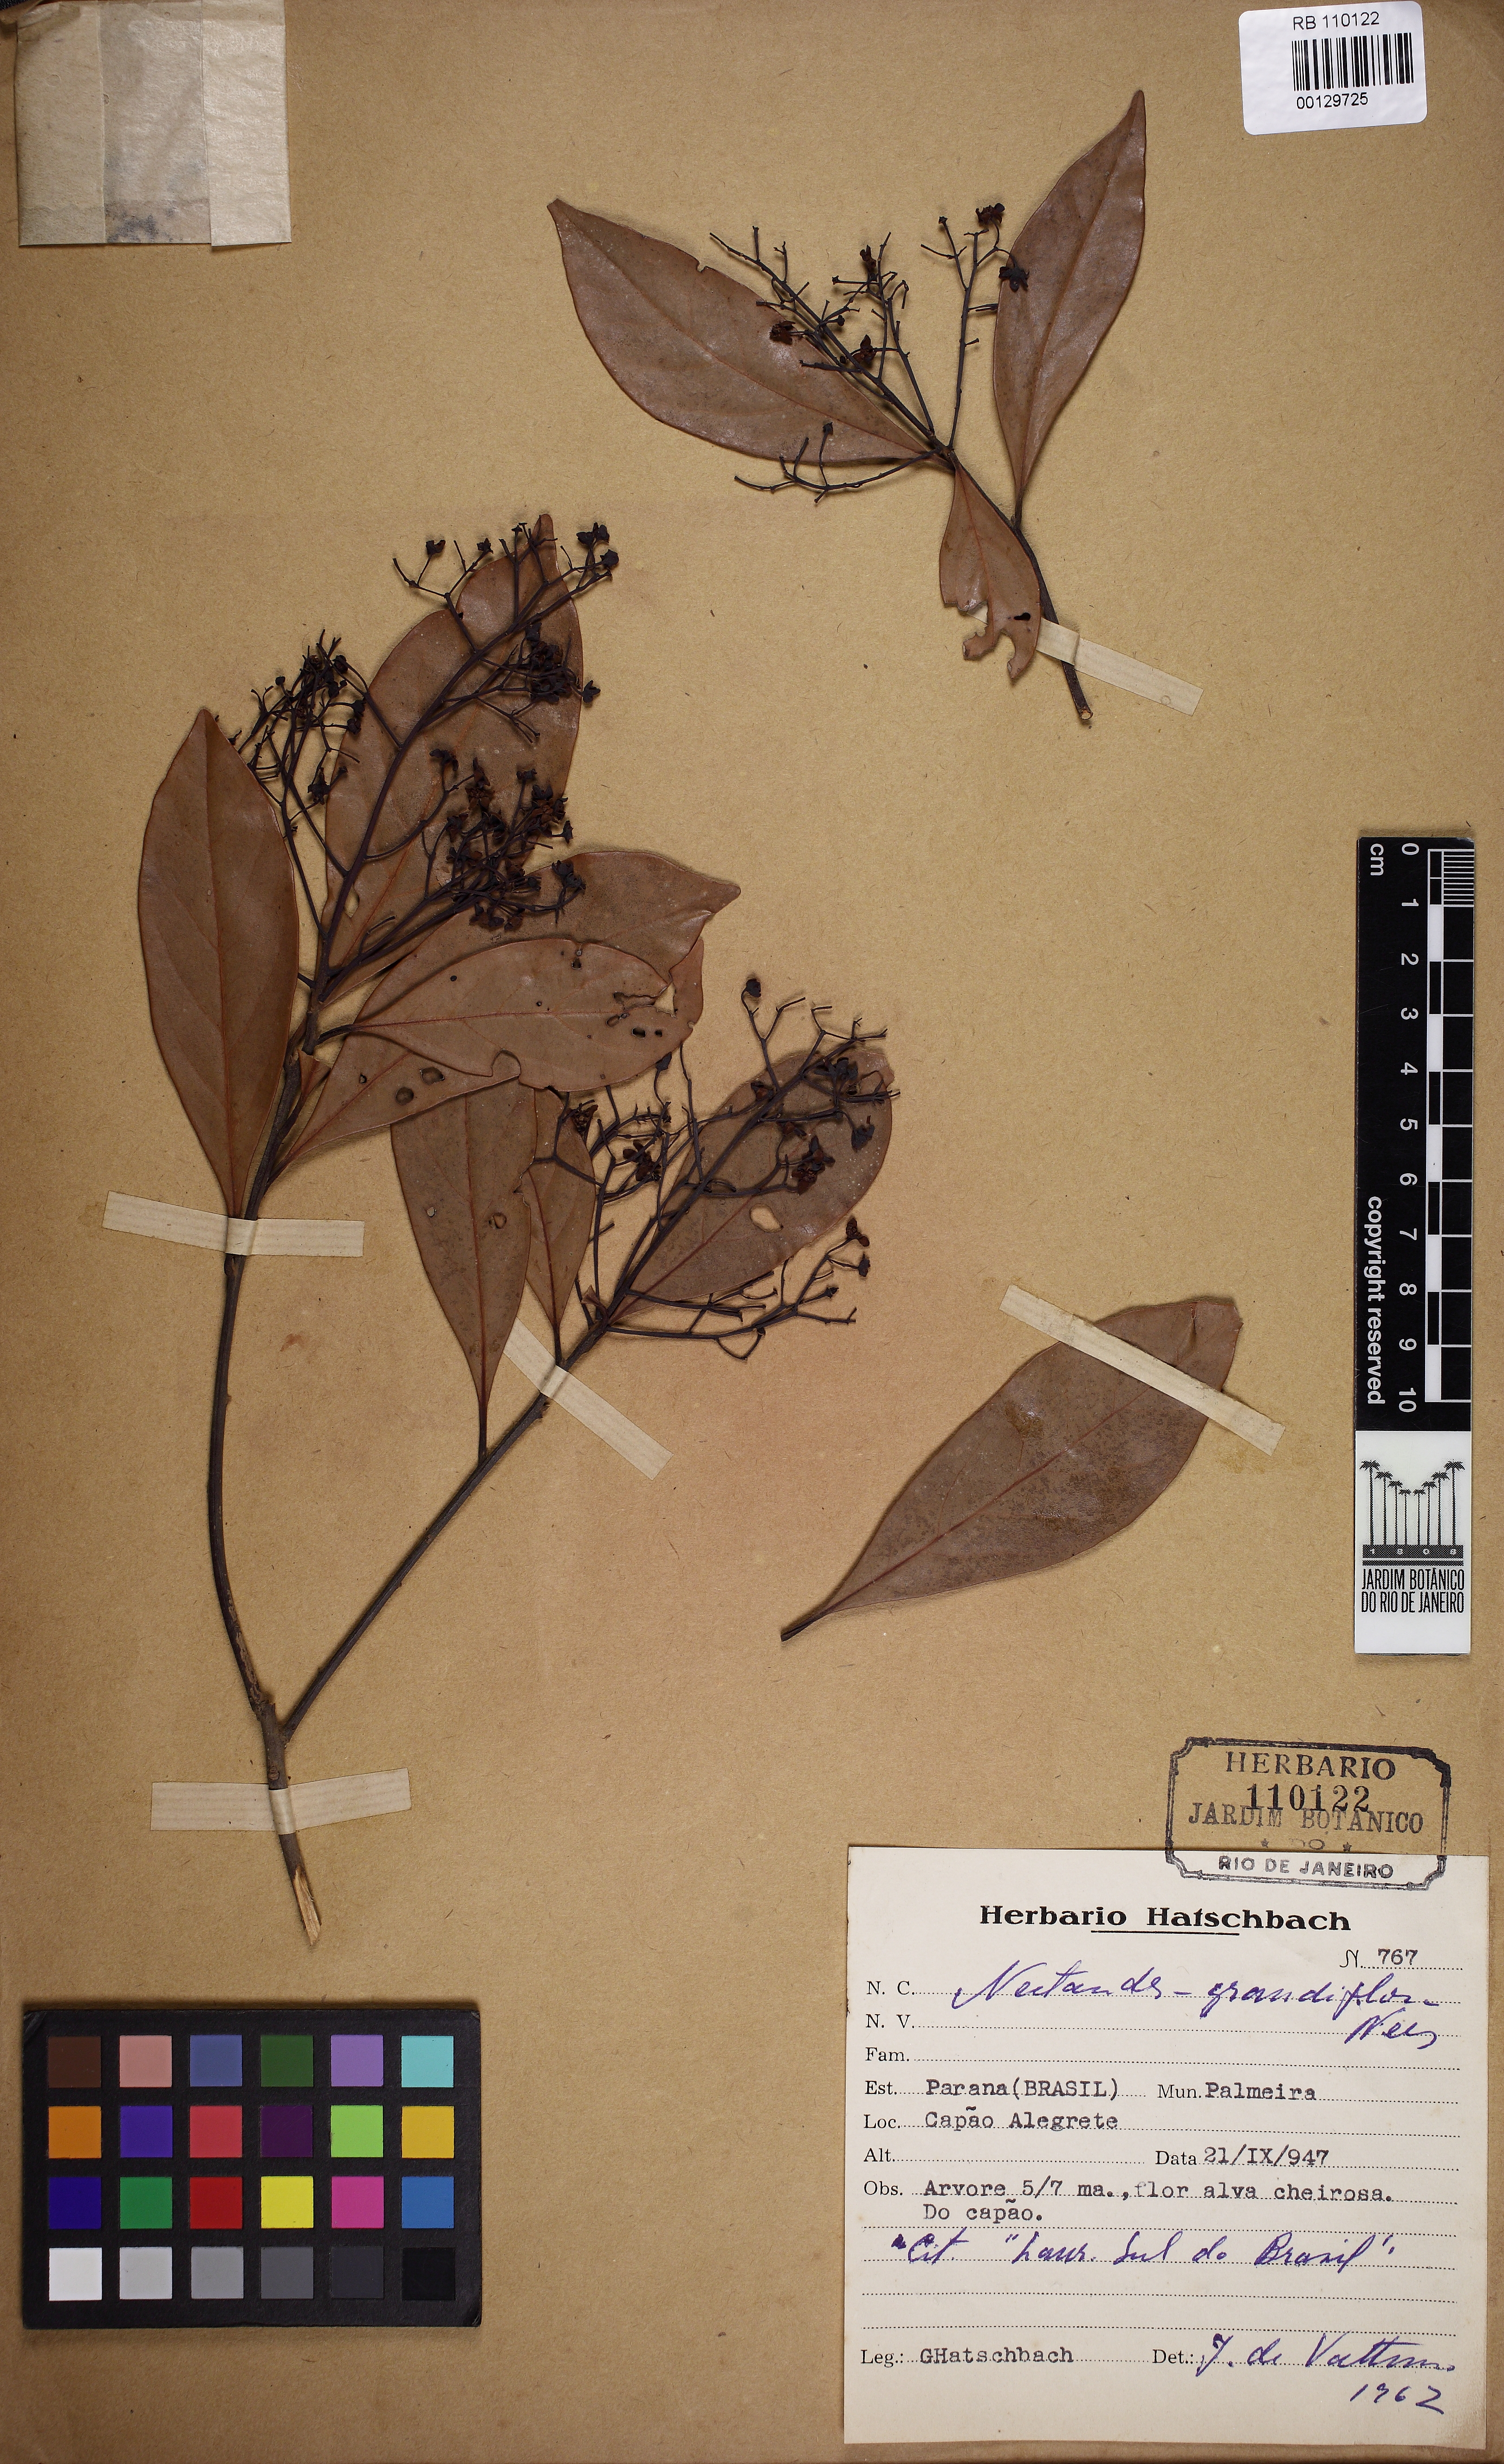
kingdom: Plantae
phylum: Tracheophyta
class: Magnoliopsida
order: Laurales
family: Lauraceae
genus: Nectandra
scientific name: Nectandra grandiflora
